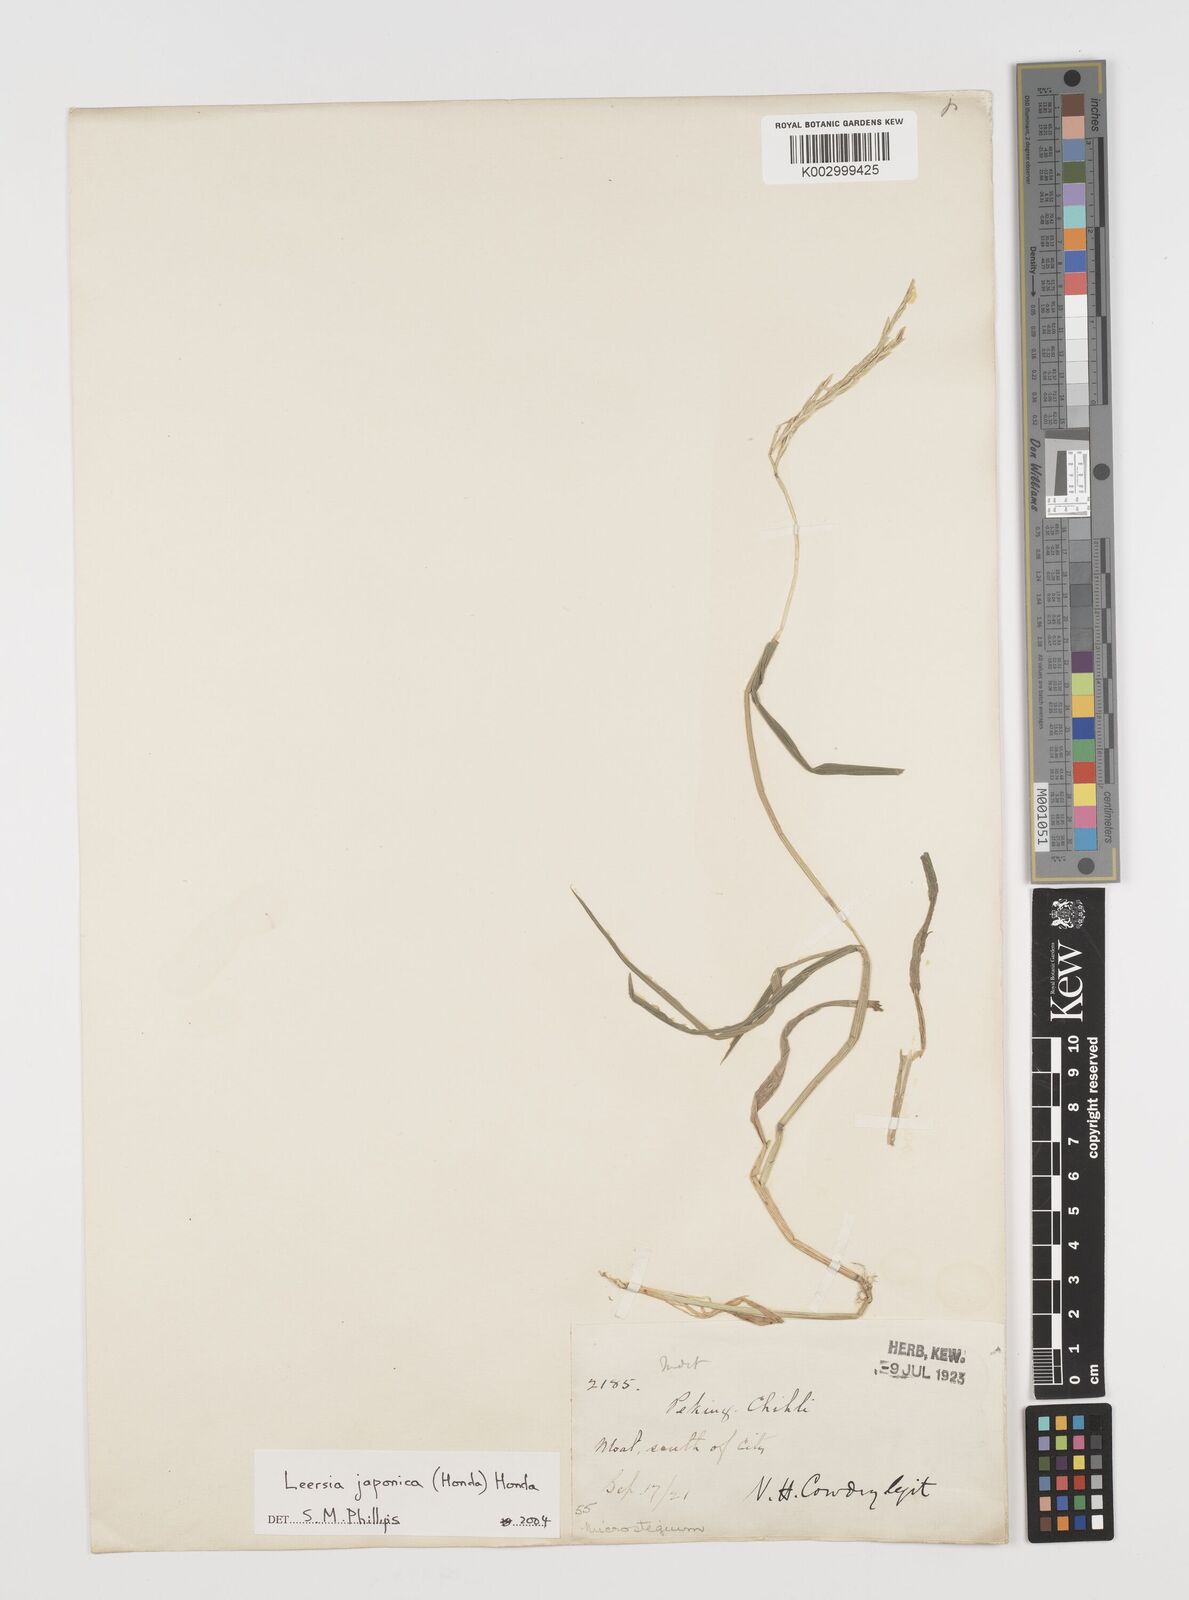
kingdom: Plantae
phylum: Tracheophyta
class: Liliopsida
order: Poales
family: Poaceae
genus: Leersia
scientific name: Leersia japonica
